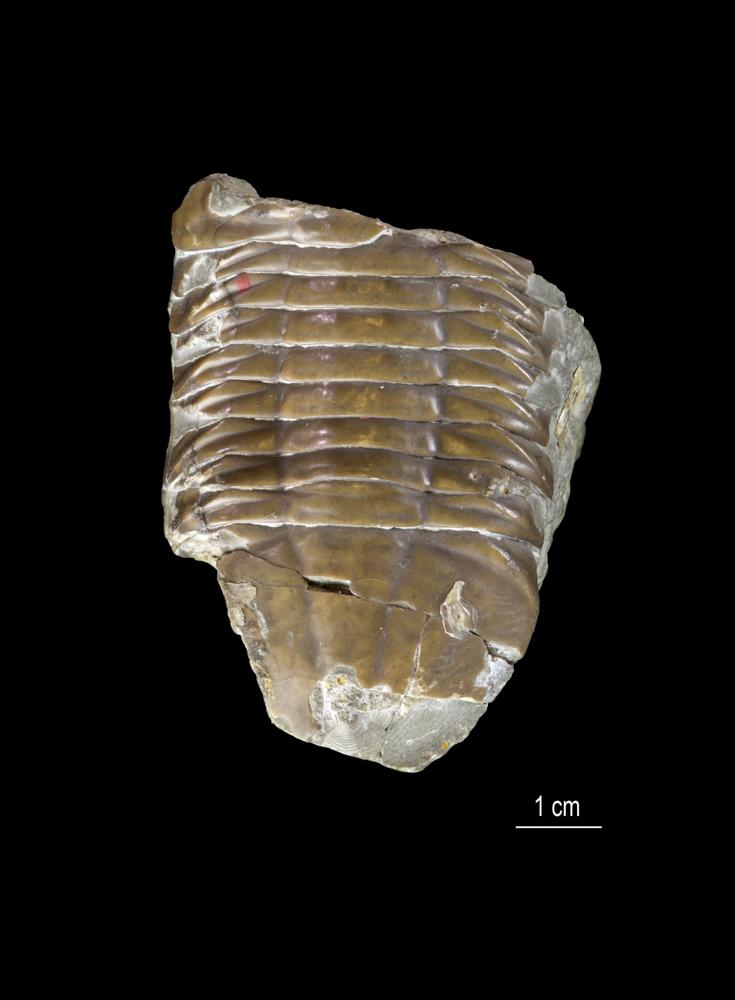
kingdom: Animalia
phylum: Arthropoda
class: Trilobita
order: Asaphida
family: Asaphidae
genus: Asaphus
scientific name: Asaphus raniceps
